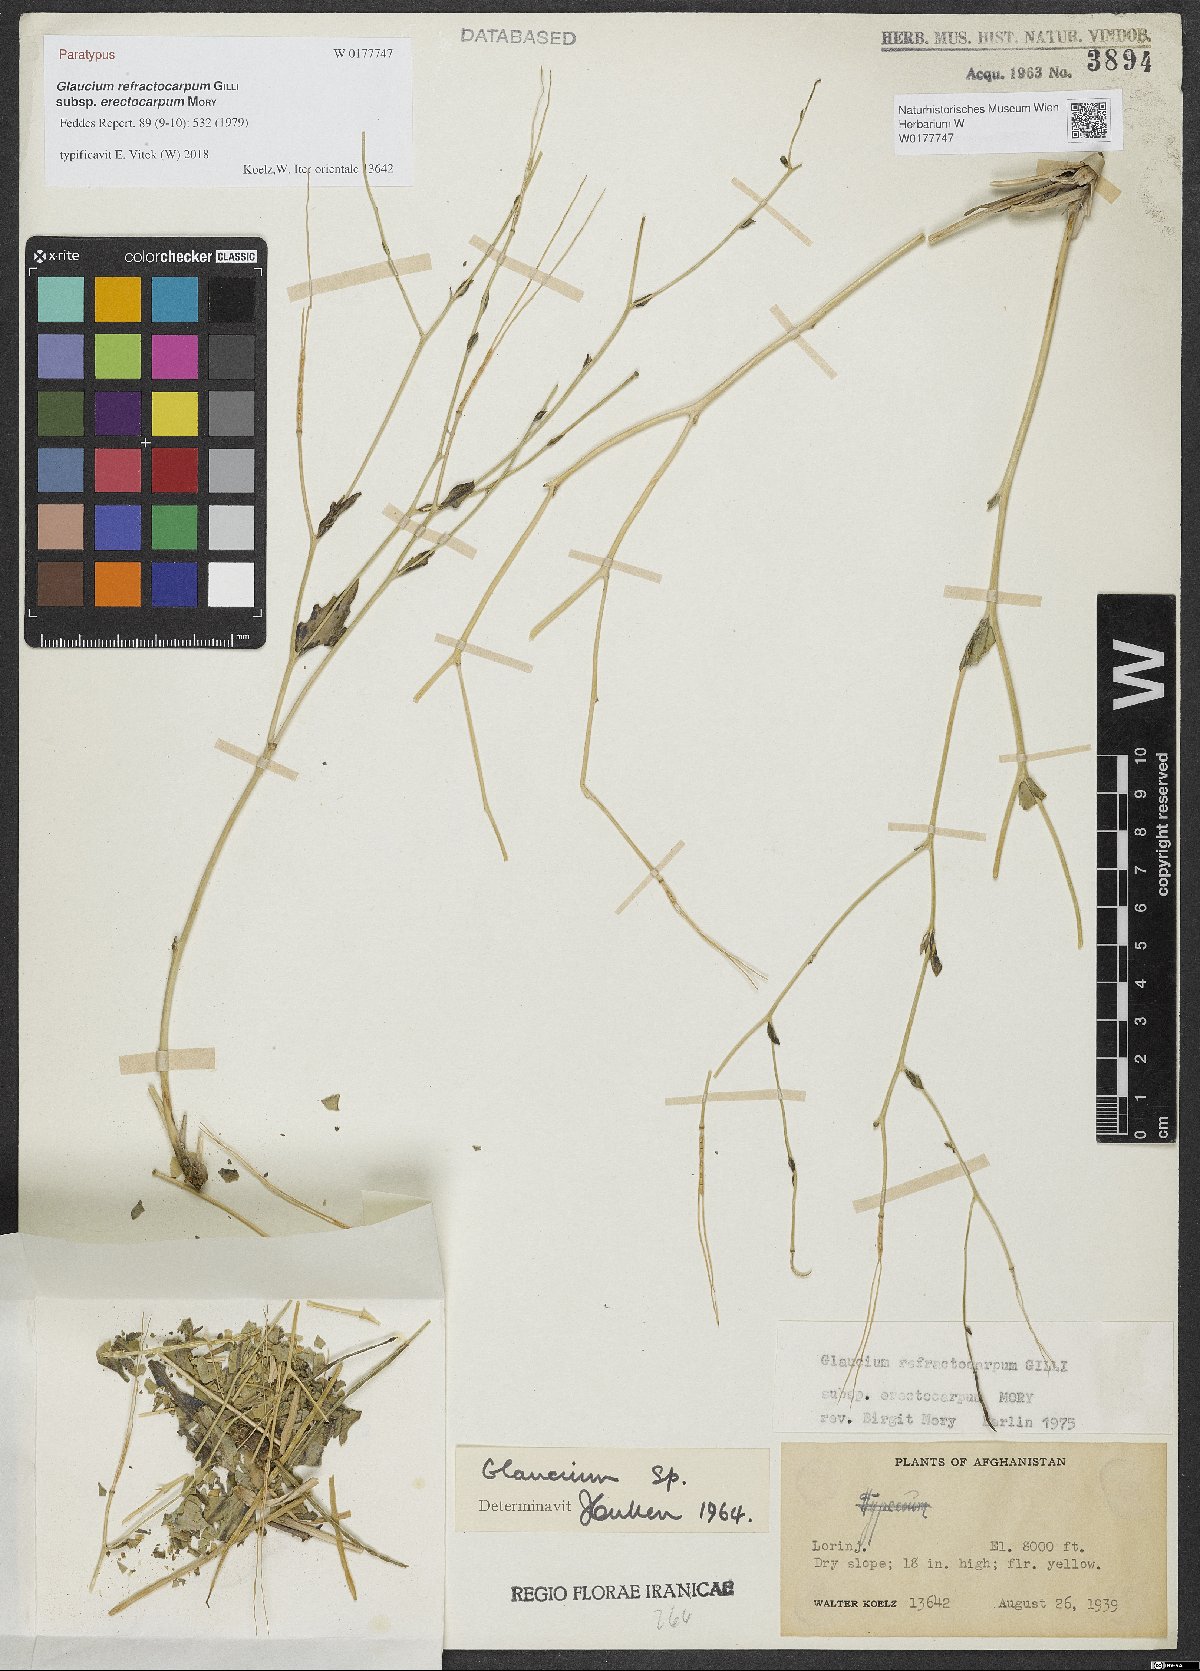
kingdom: Plantae
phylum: Tracheophyta
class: Magnoliopsida
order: Ranunculales
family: Papaveraceae
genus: Glaucium
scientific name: Glaucium refractocarpum
